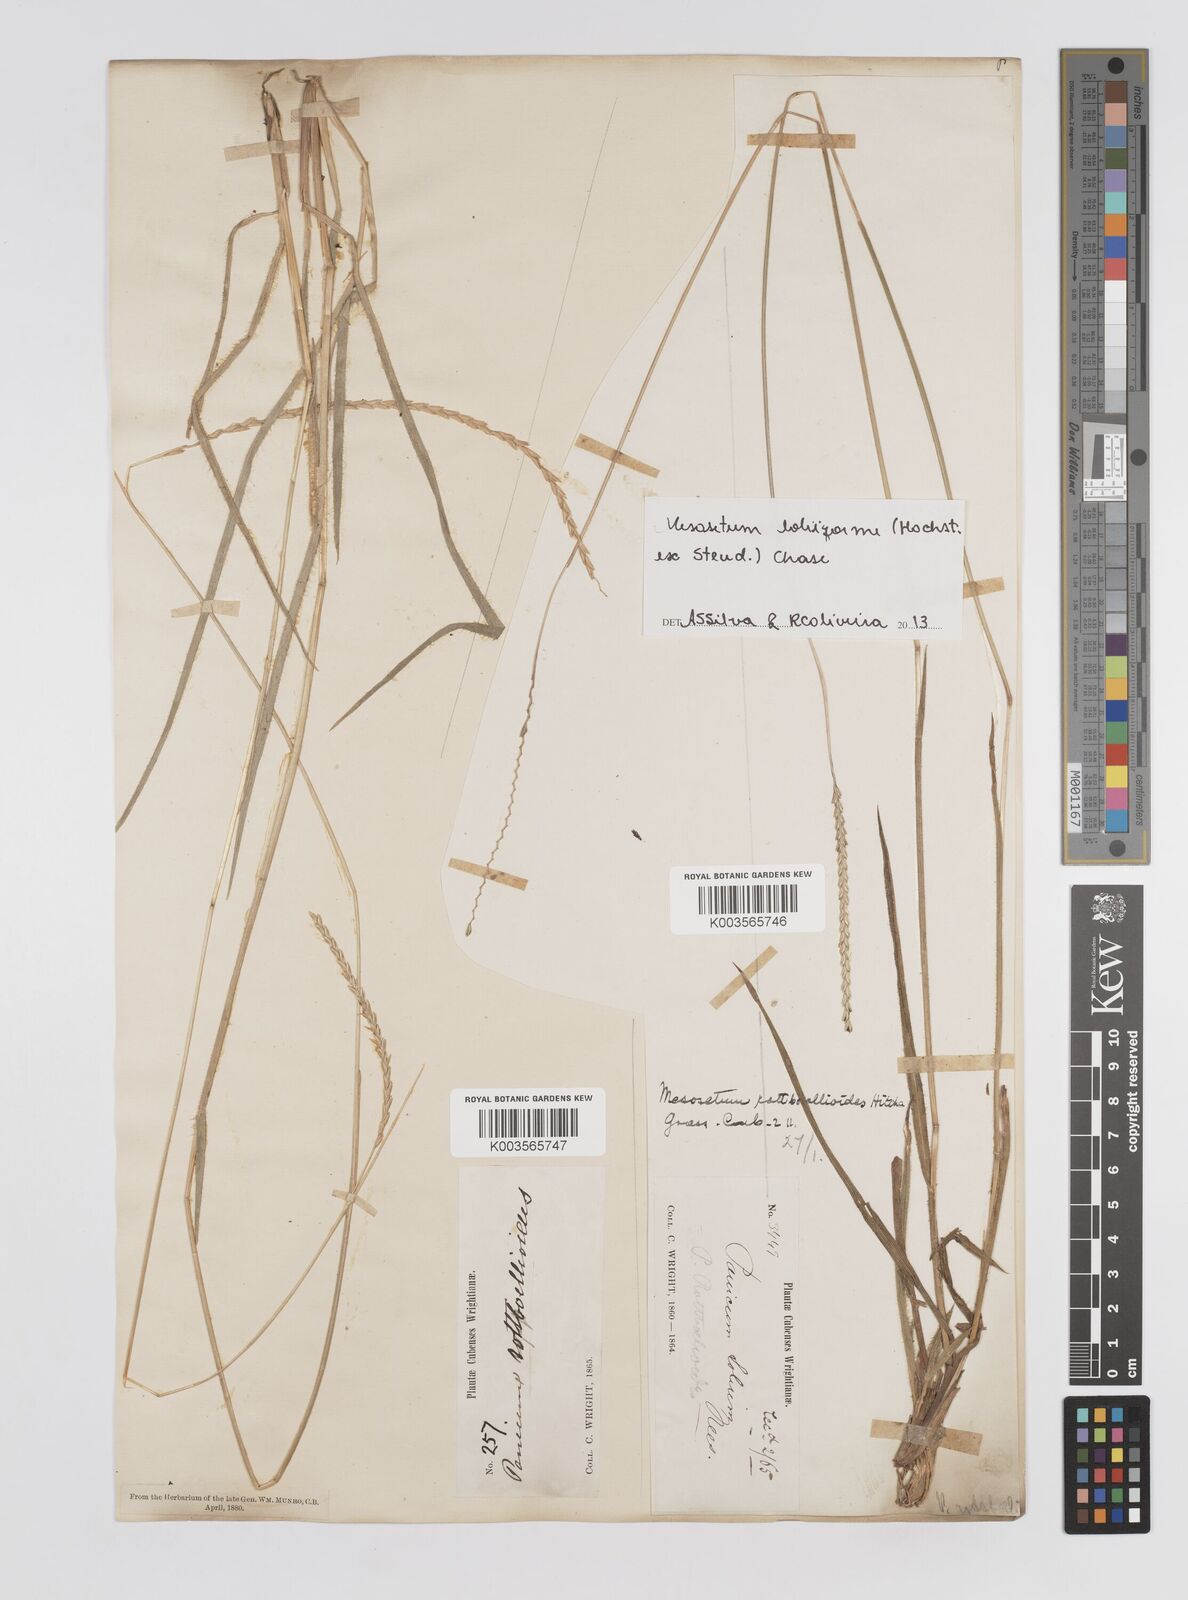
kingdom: Plantae
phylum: Tracheophyta
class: Liliopsida
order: Poales
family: Poaceae
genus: Mesosetum
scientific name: Mesosetum loliiforme
